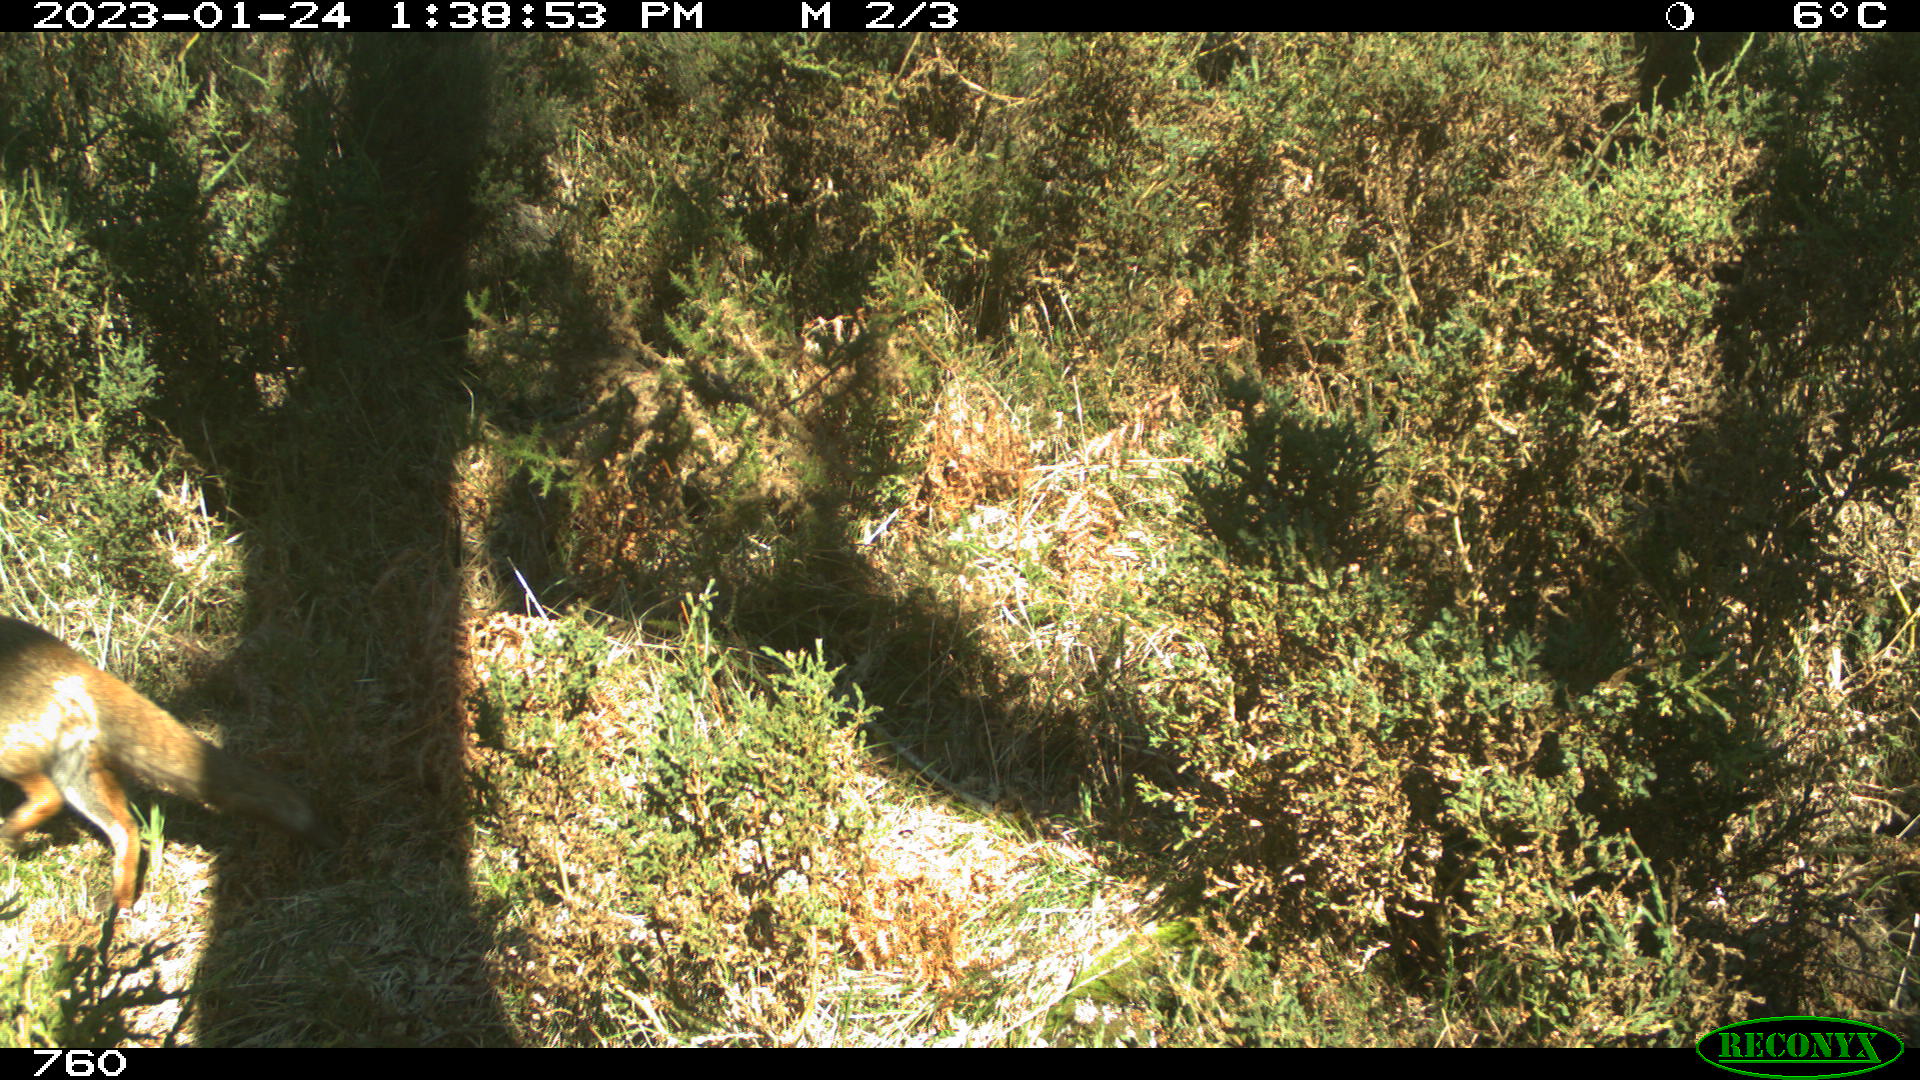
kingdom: Animalia
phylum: Chordata
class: Mammalia
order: Carnivora
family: Canidae
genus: Vulpes
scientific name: Vulpes vulpes
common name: Red fox
